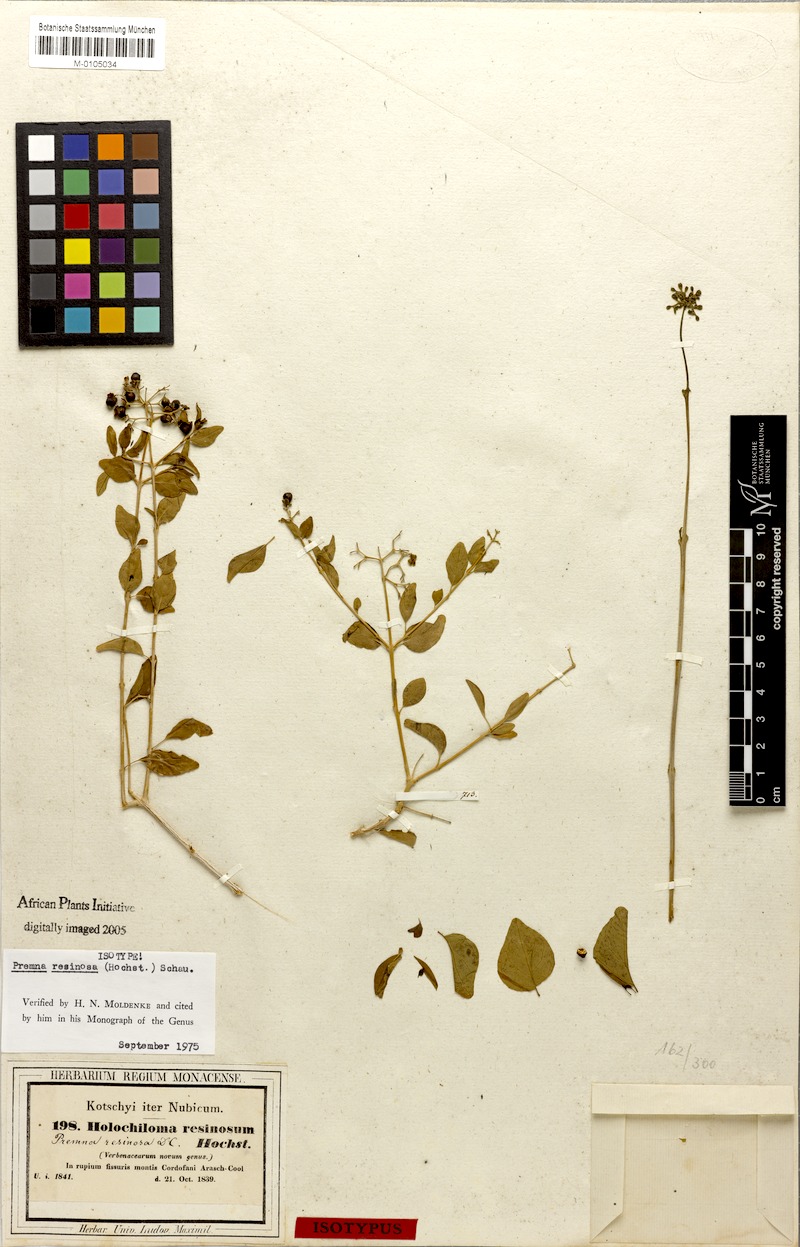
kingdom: Plantae
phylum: Tracheophyta
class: Magnoliopsida
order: Lamiales
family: Lamiaceae
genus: Premna
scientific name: Premna resinosa
